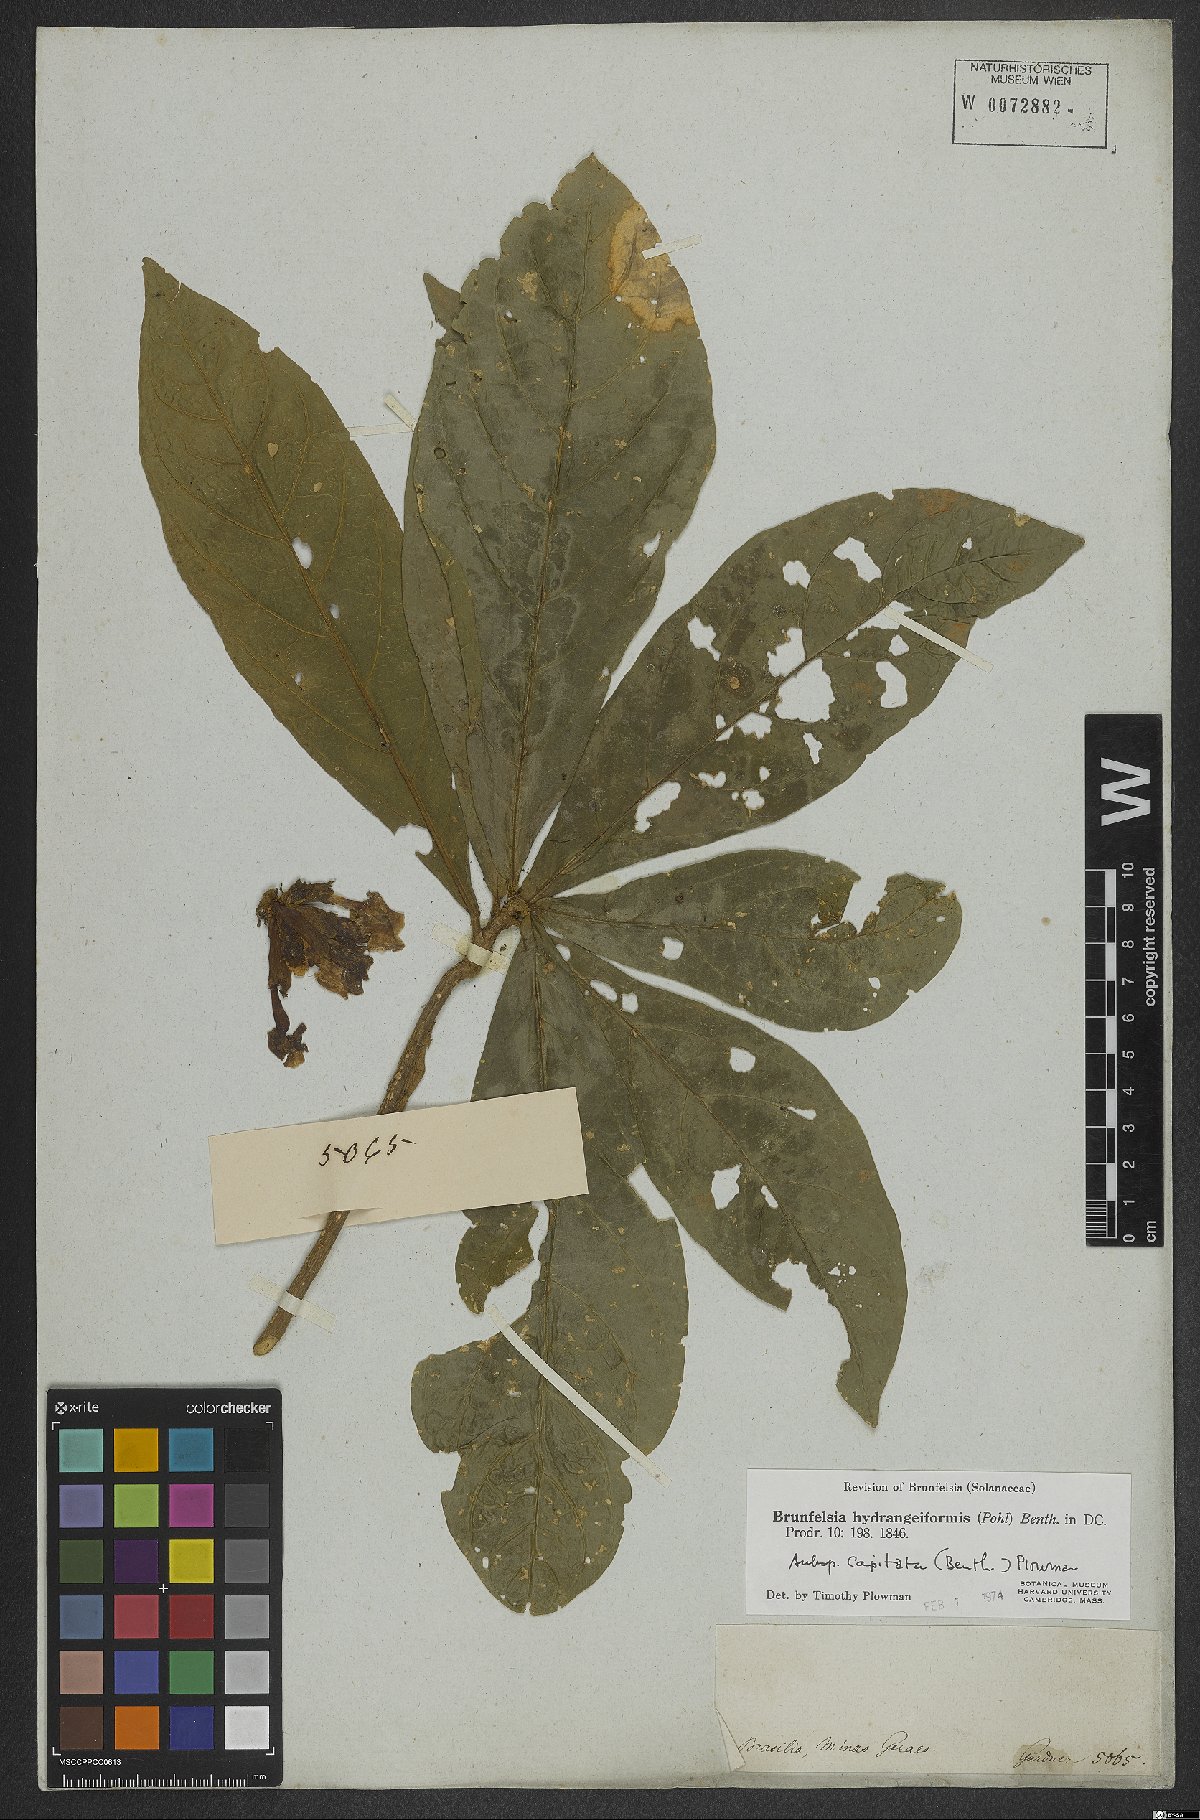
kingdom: Plantae
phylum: Tracheophyta
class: Magnoliopsida
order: Solanales
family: Solanaceae
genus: Brunfelsia
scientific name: Brunfelsia hydrangeiformis
